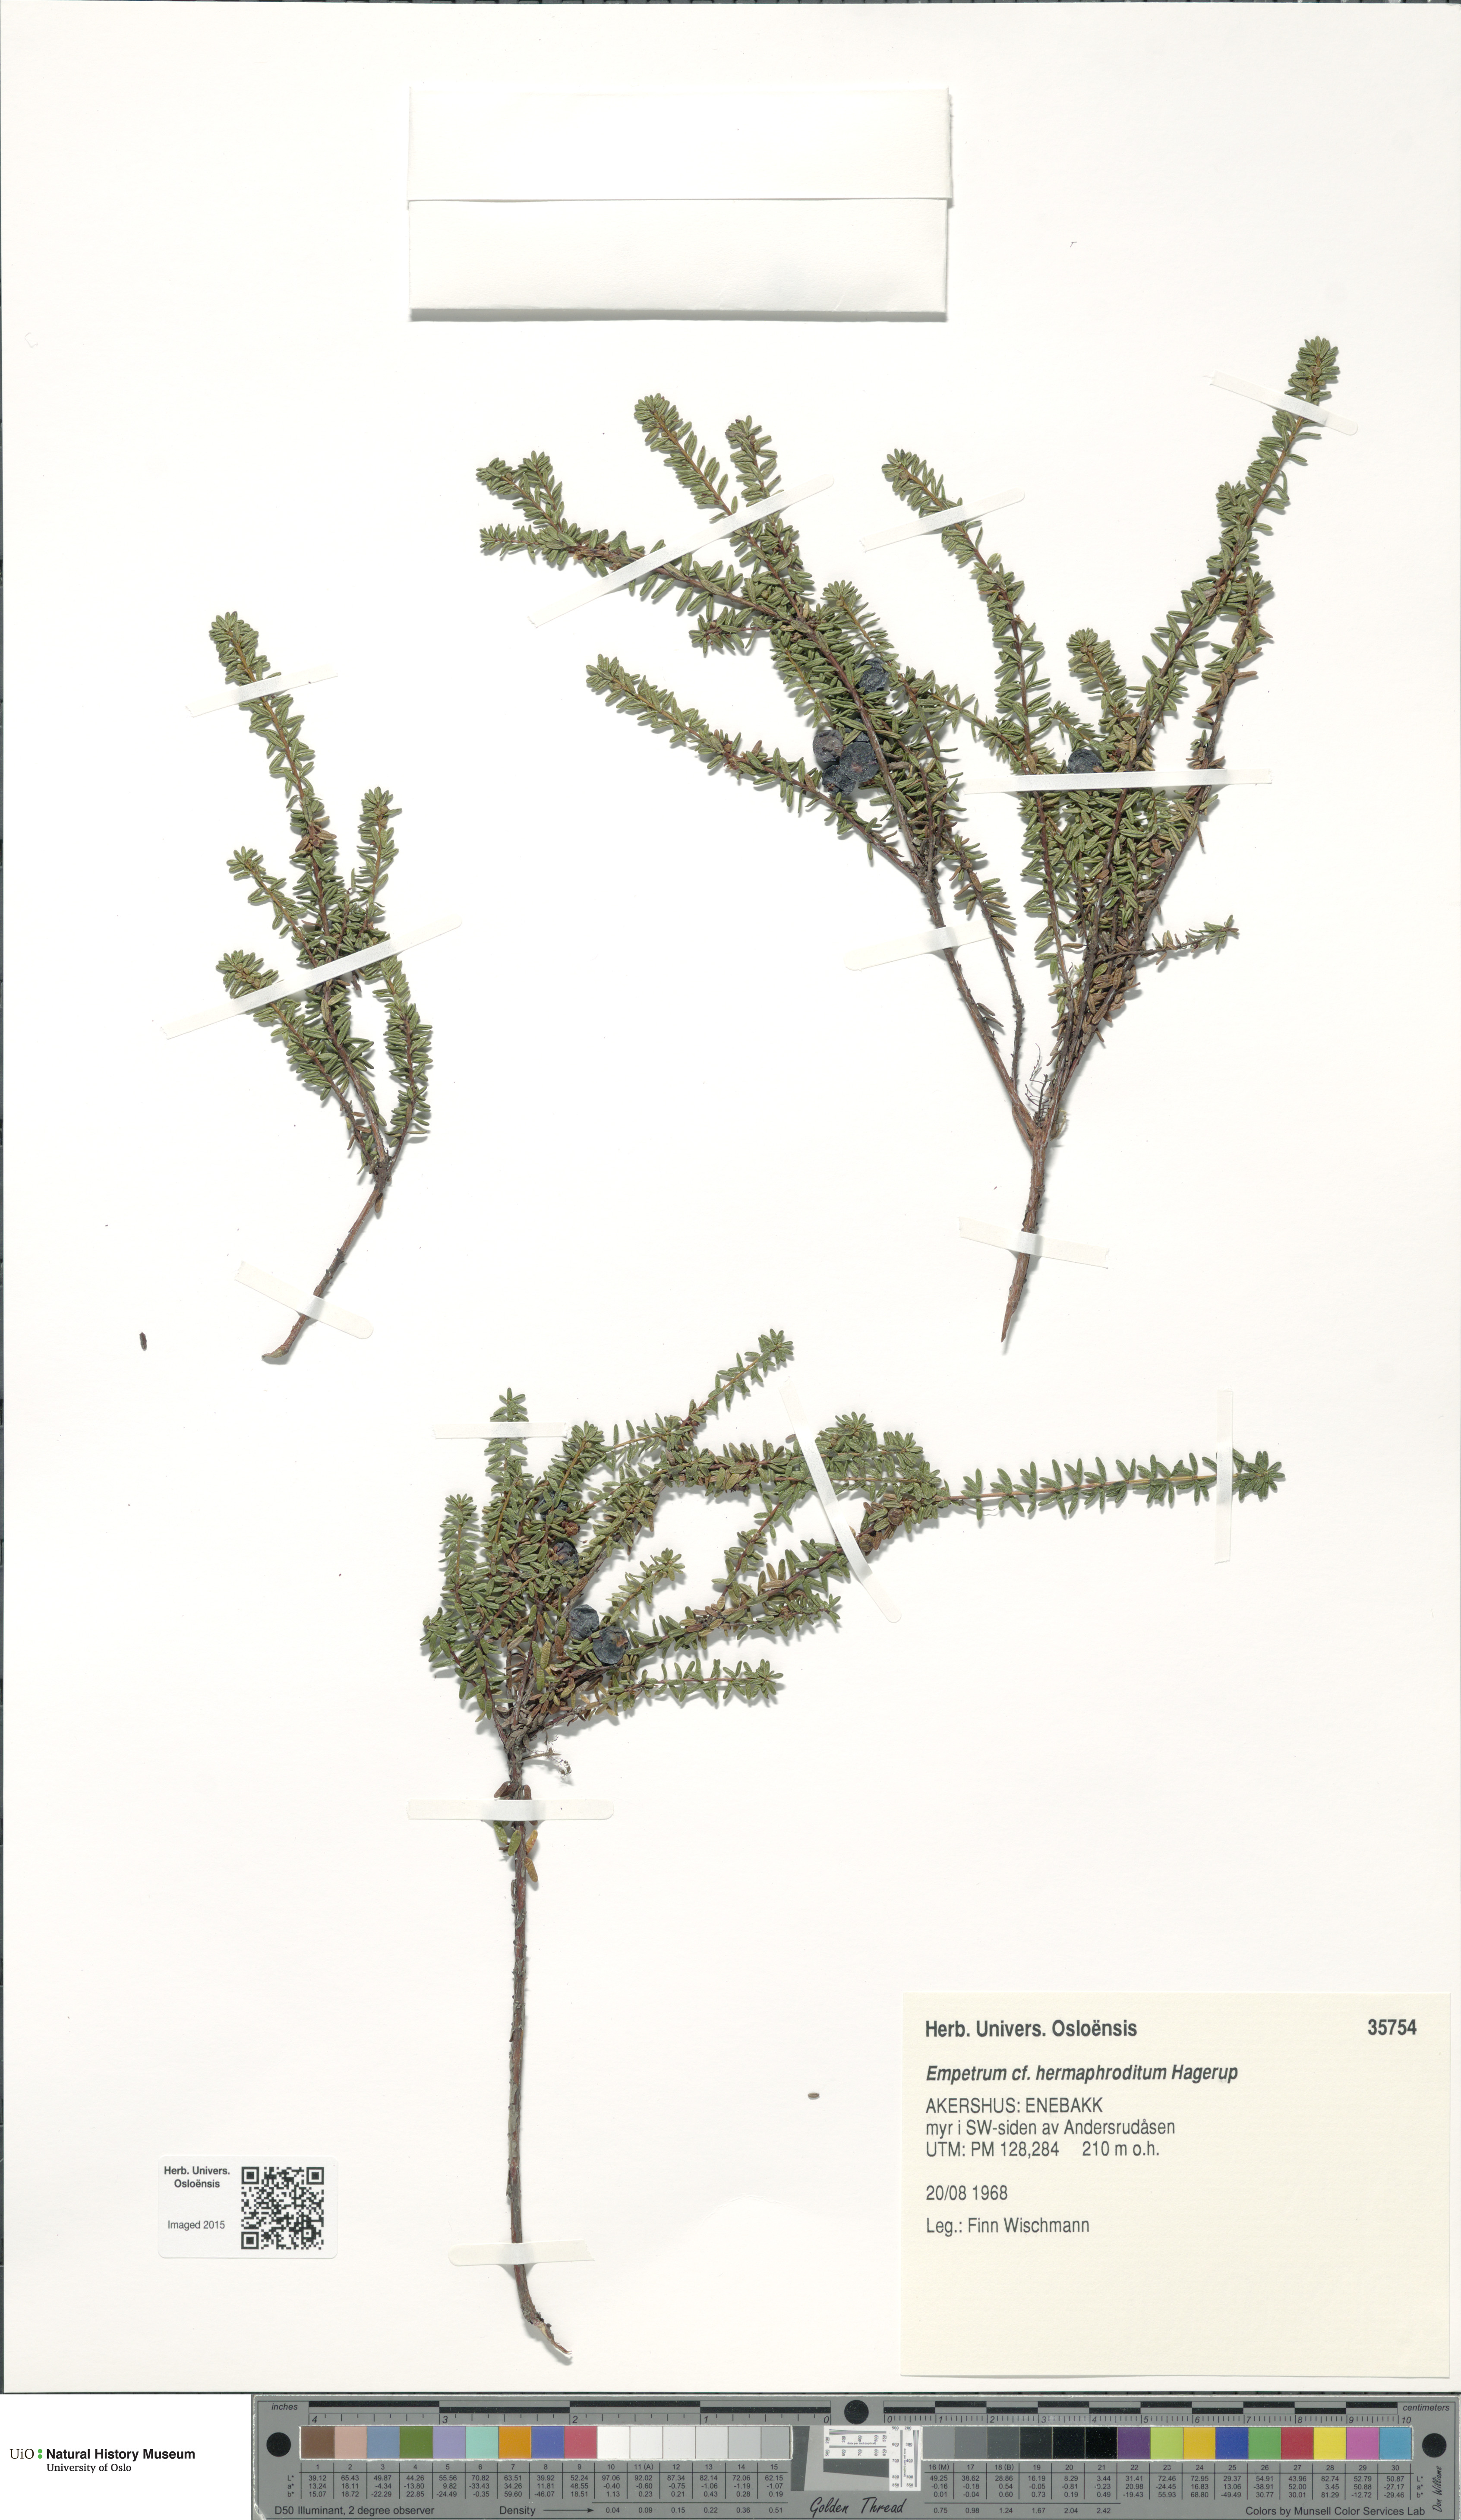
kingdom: Plantae
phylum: Tracheophyta
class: Magnoliopsida
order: Ericales
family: Ericaceae
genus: Empetrum
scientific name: Empetrum hermaphroditum
